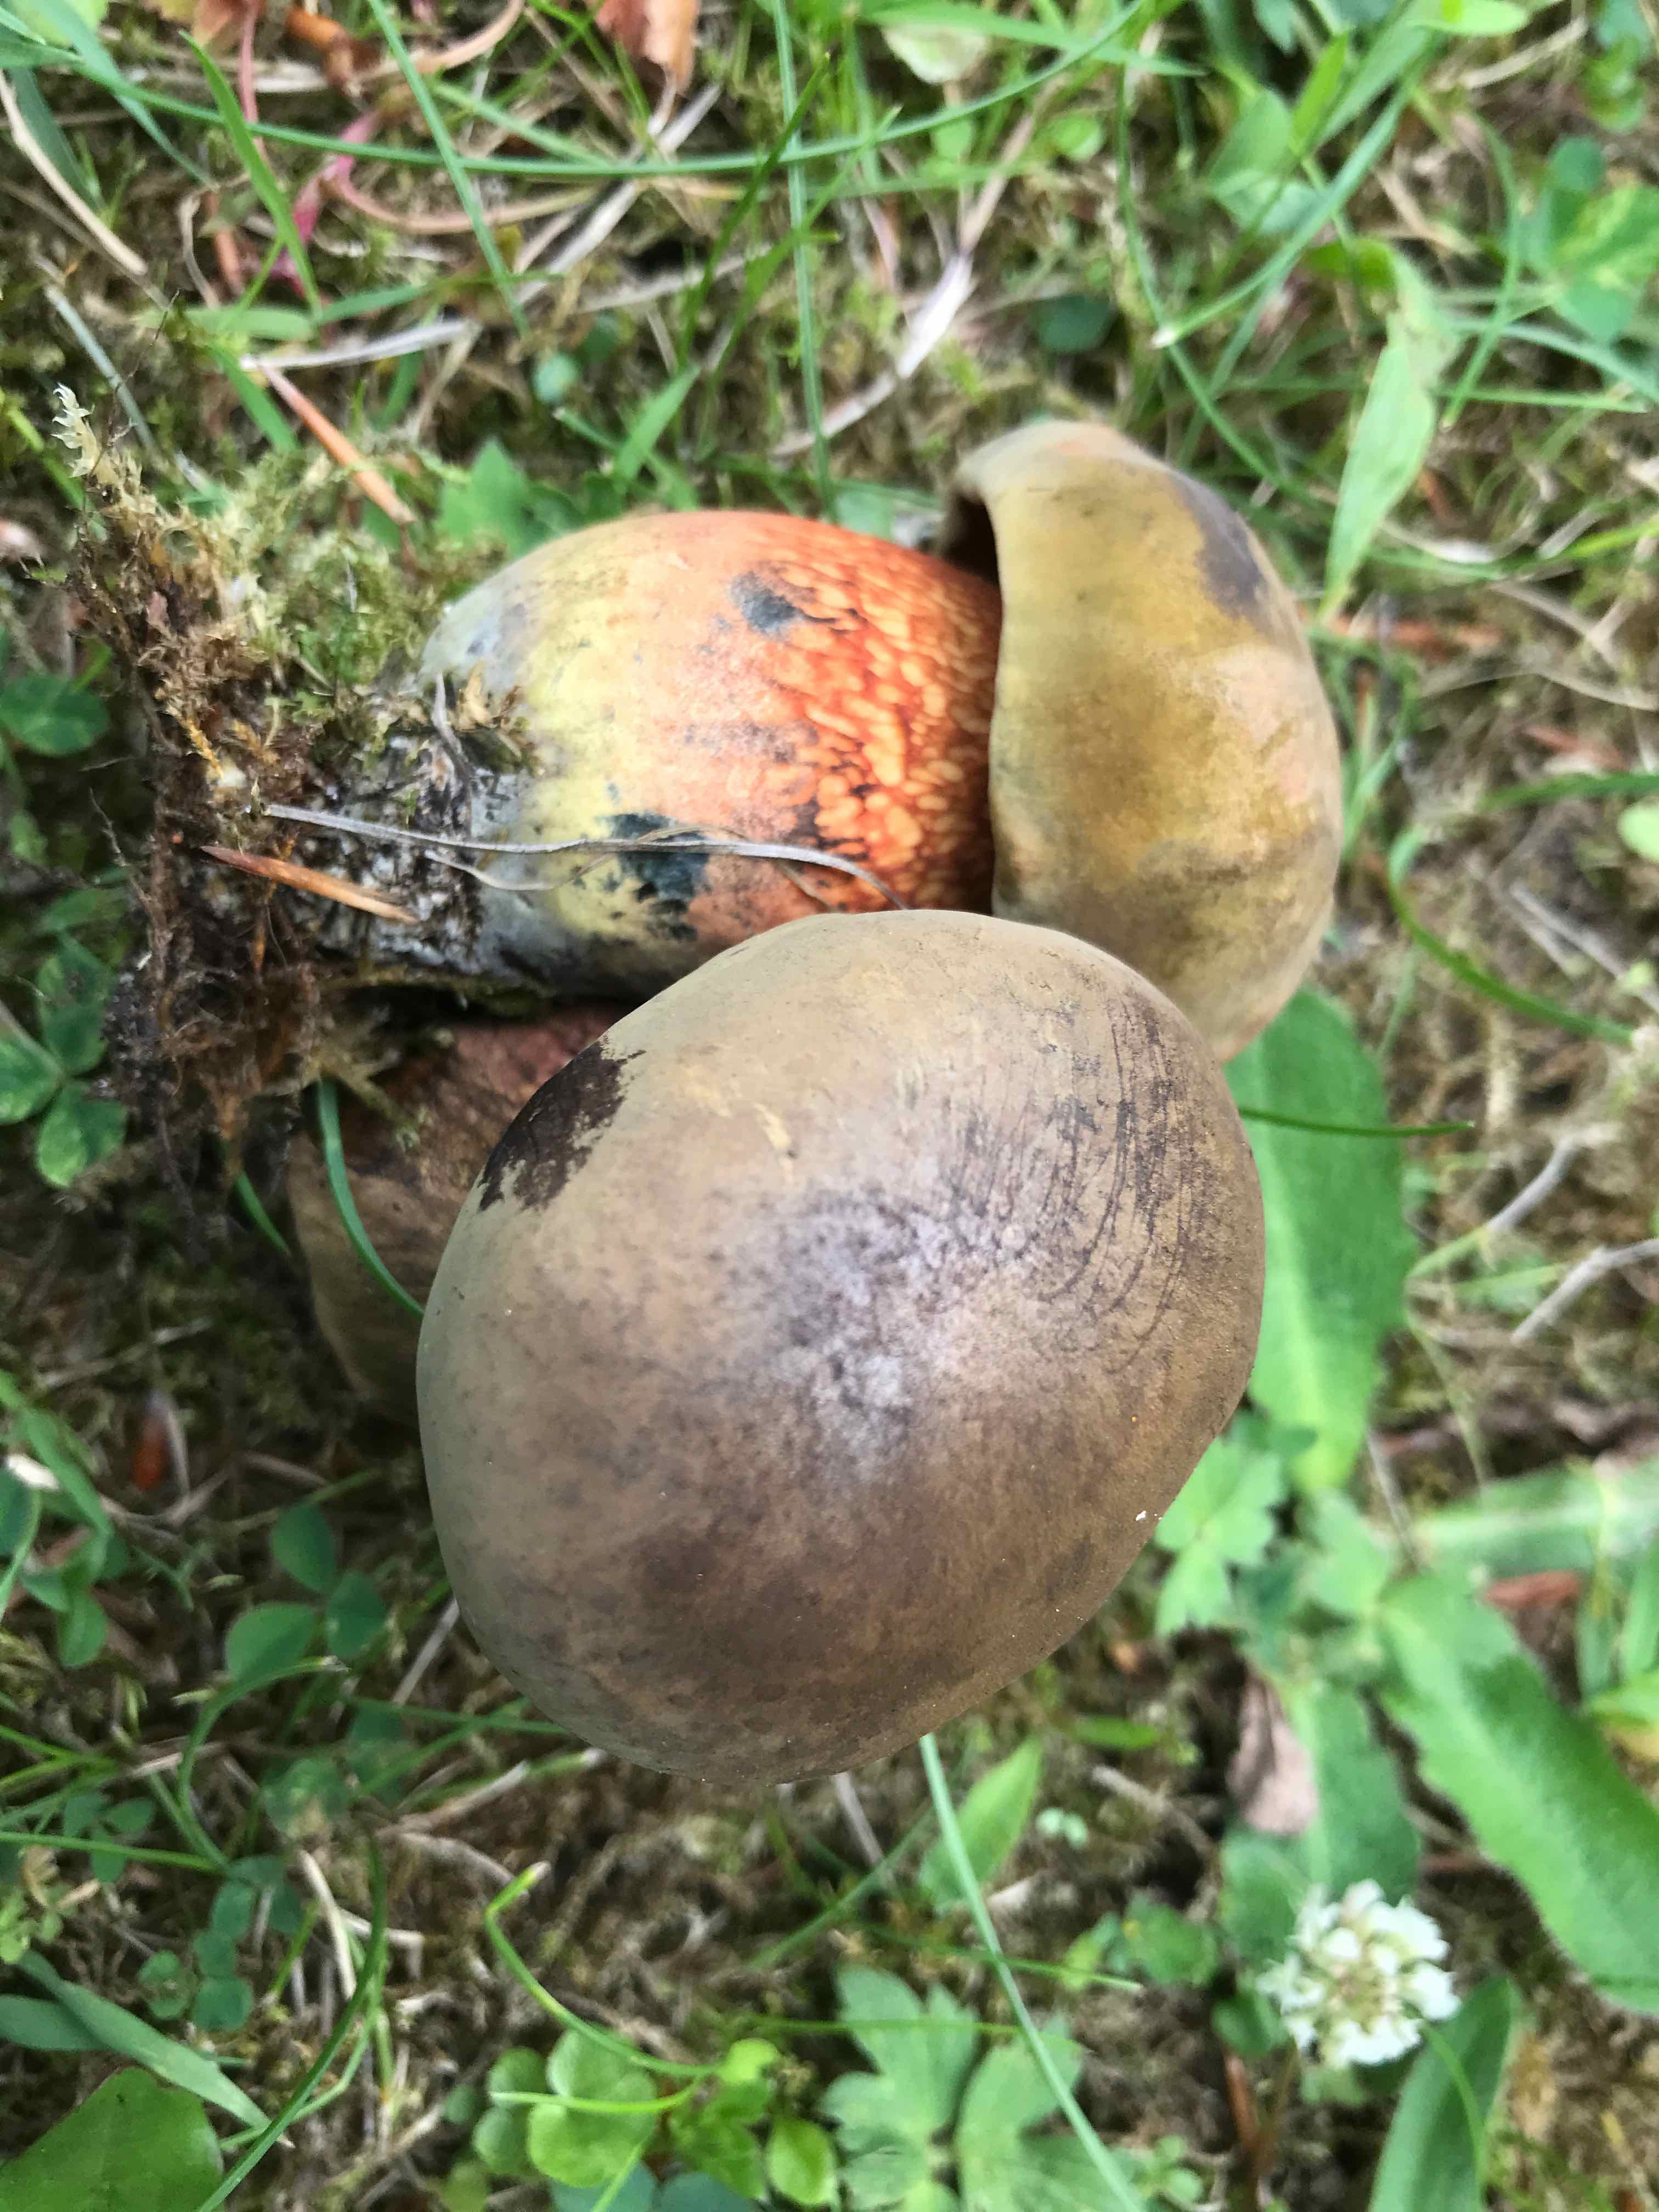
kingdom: Fungi
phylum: Basidiomycota
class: Agaricomycetes
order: Boletales
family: Boletaceae
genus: Suillellus
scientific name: Suillellus luridus
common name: netstokket indigorørhat
